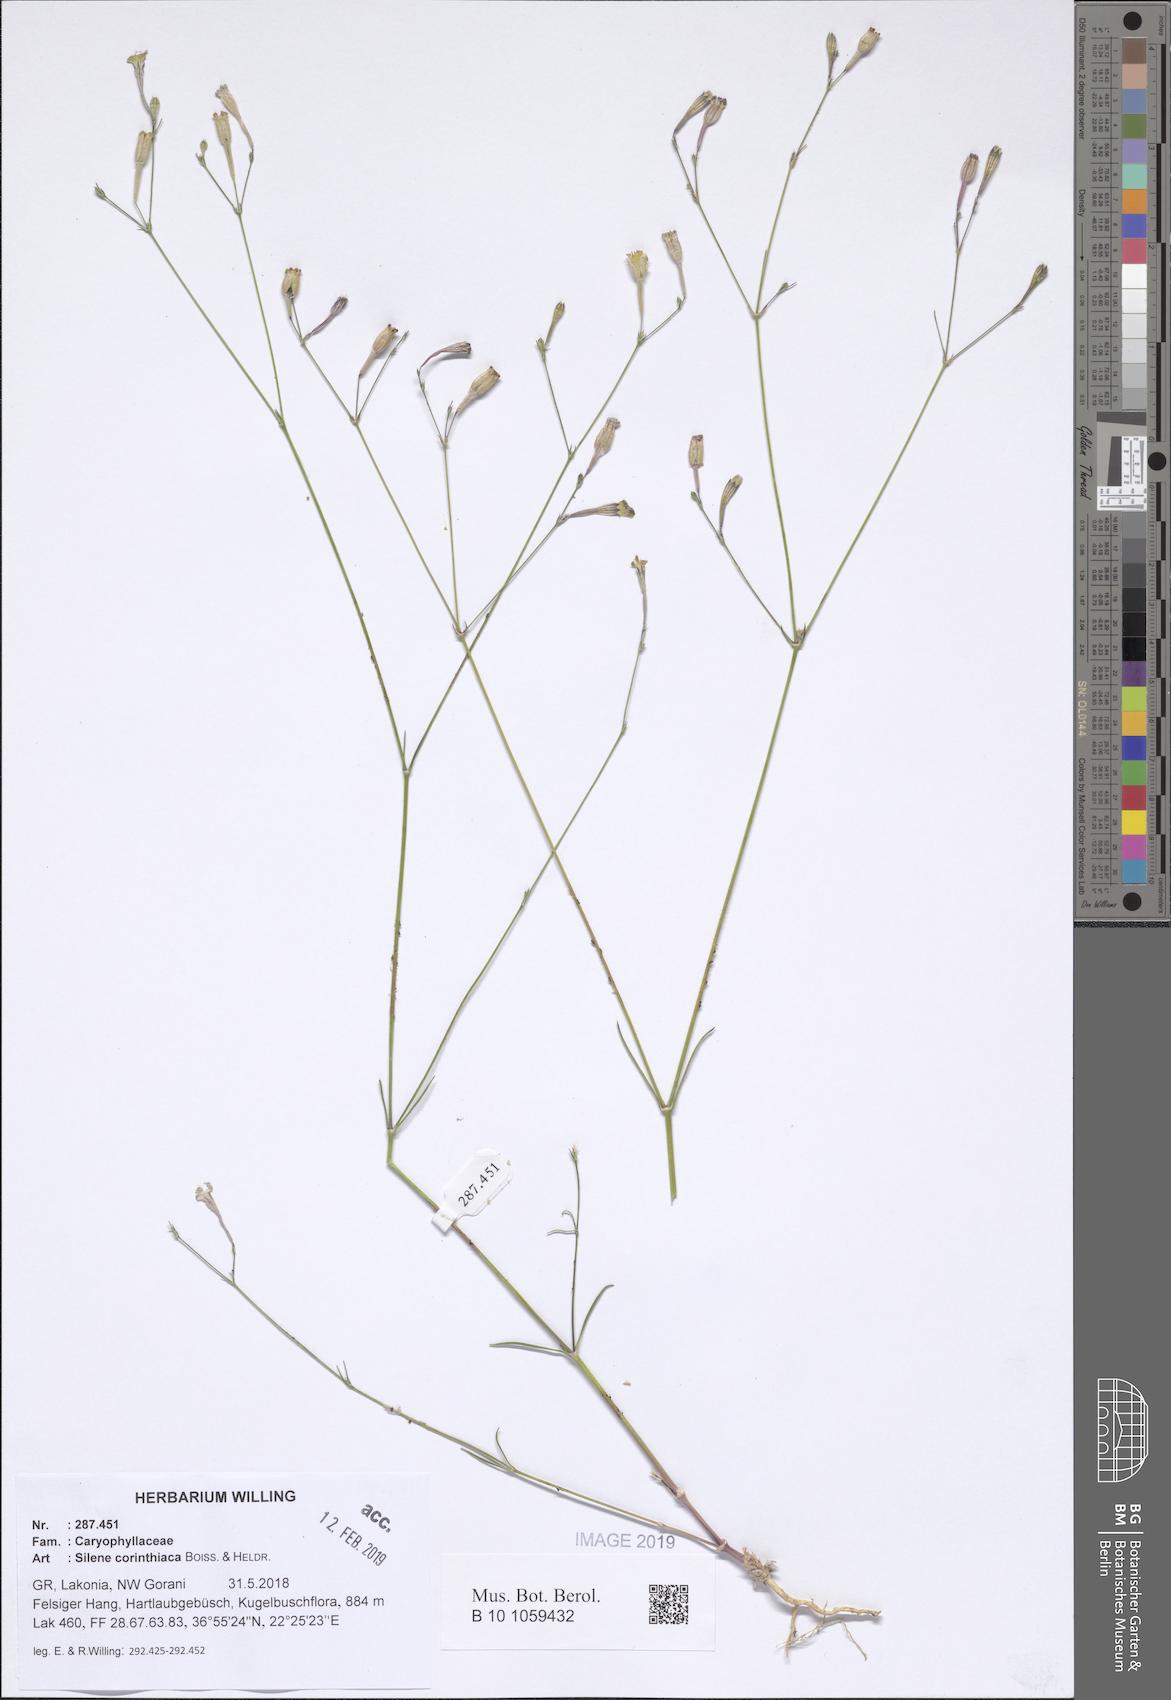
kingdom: Plantae
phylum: Tracheophyta
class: Magnoliopsida
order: Caryophyllales
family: Caryophyllaceae
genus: Silene
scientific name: Silene corinthiaca
